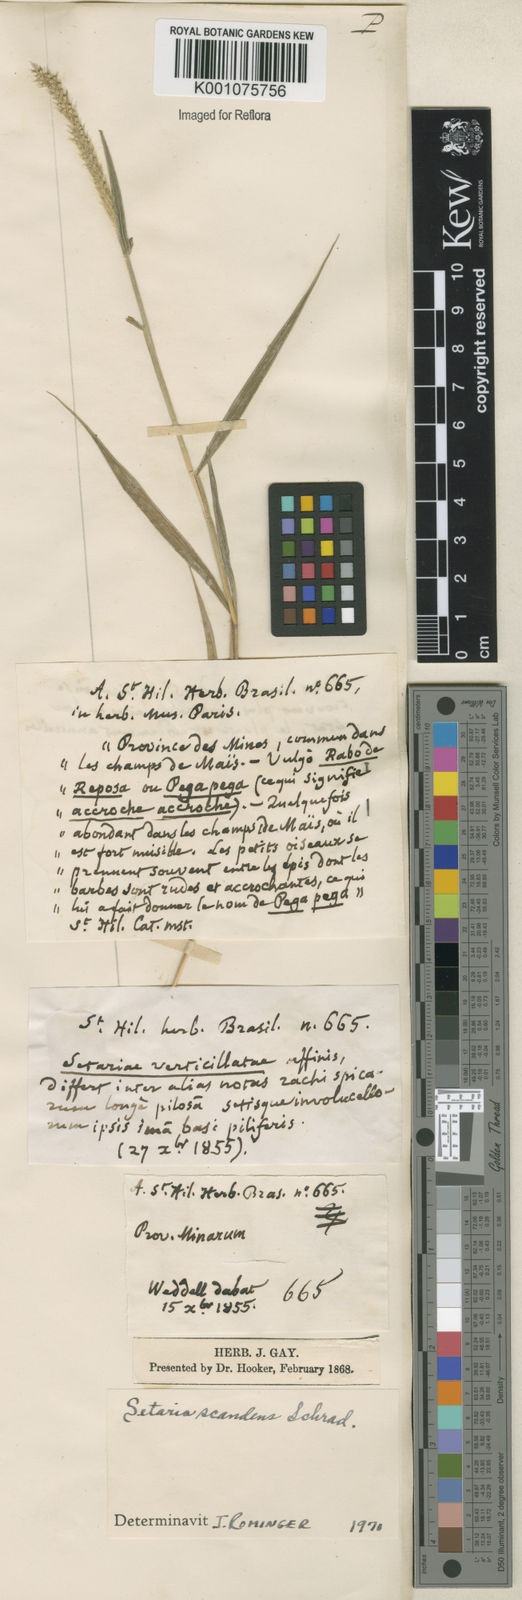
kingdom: Plantae
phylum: Tracheophyta
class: Liliopsida
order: Poales
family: Poaceae
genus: Setaria
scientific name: Setaria scandens
